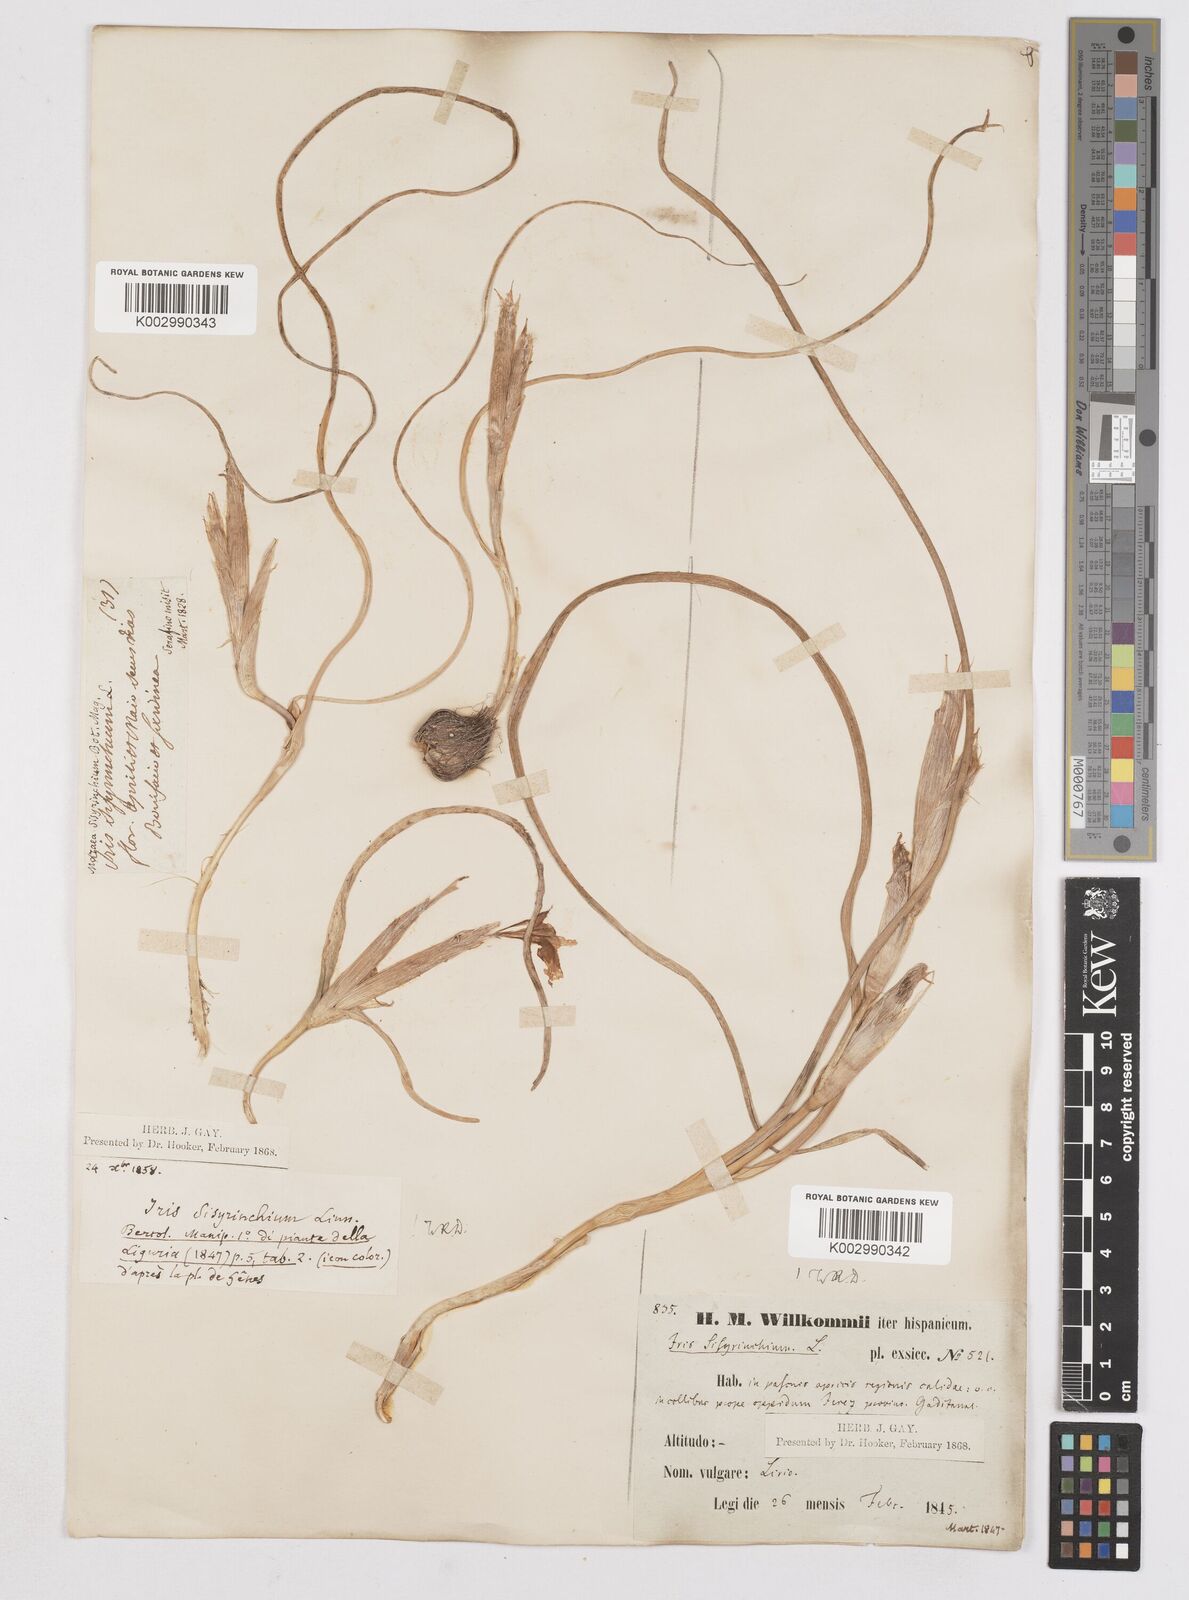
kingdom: Plantae
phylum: Tracheophyta
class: Liliopsida
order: Asparagales
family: Iridaceae
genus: Moraea
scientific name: Moraea sisyrinchium
